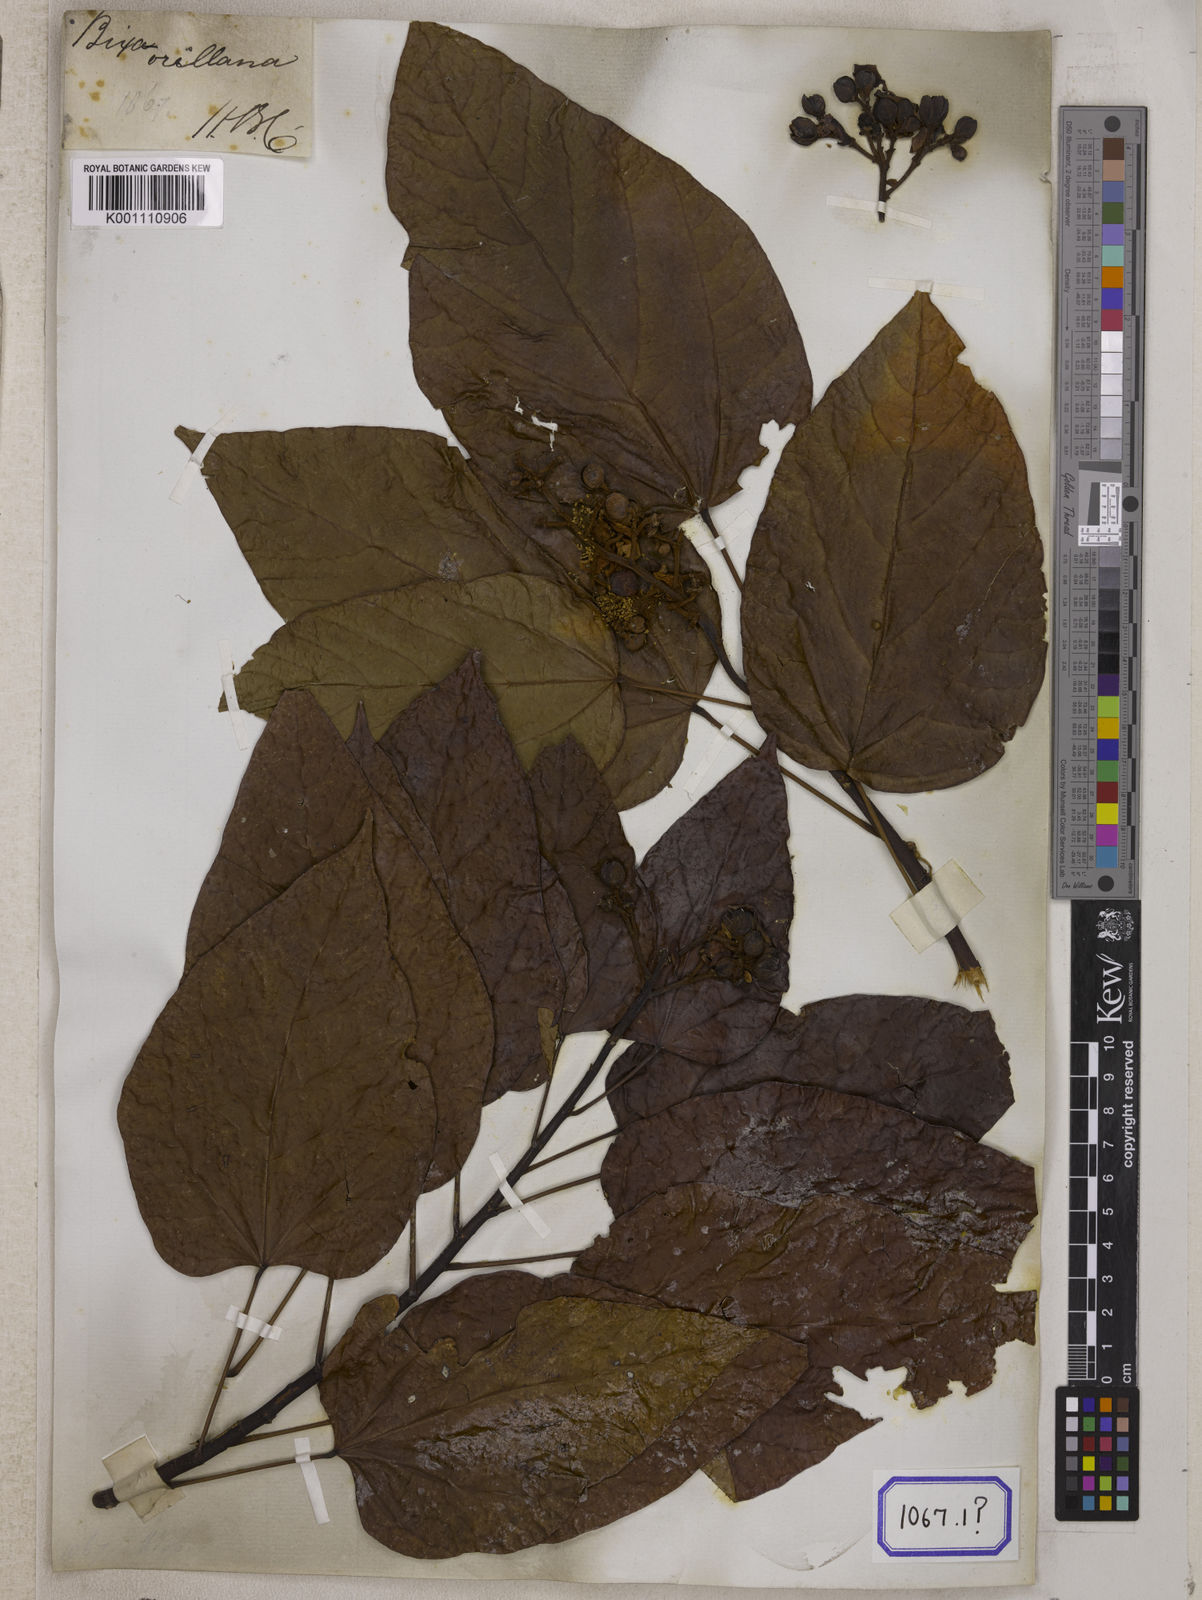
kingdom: Plantae
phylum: Tracheophyta
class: Magnoliopsida
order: Malvales
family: Bixaceae
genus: Bixa
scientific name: Bixa orellana
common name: Lipsticktree
